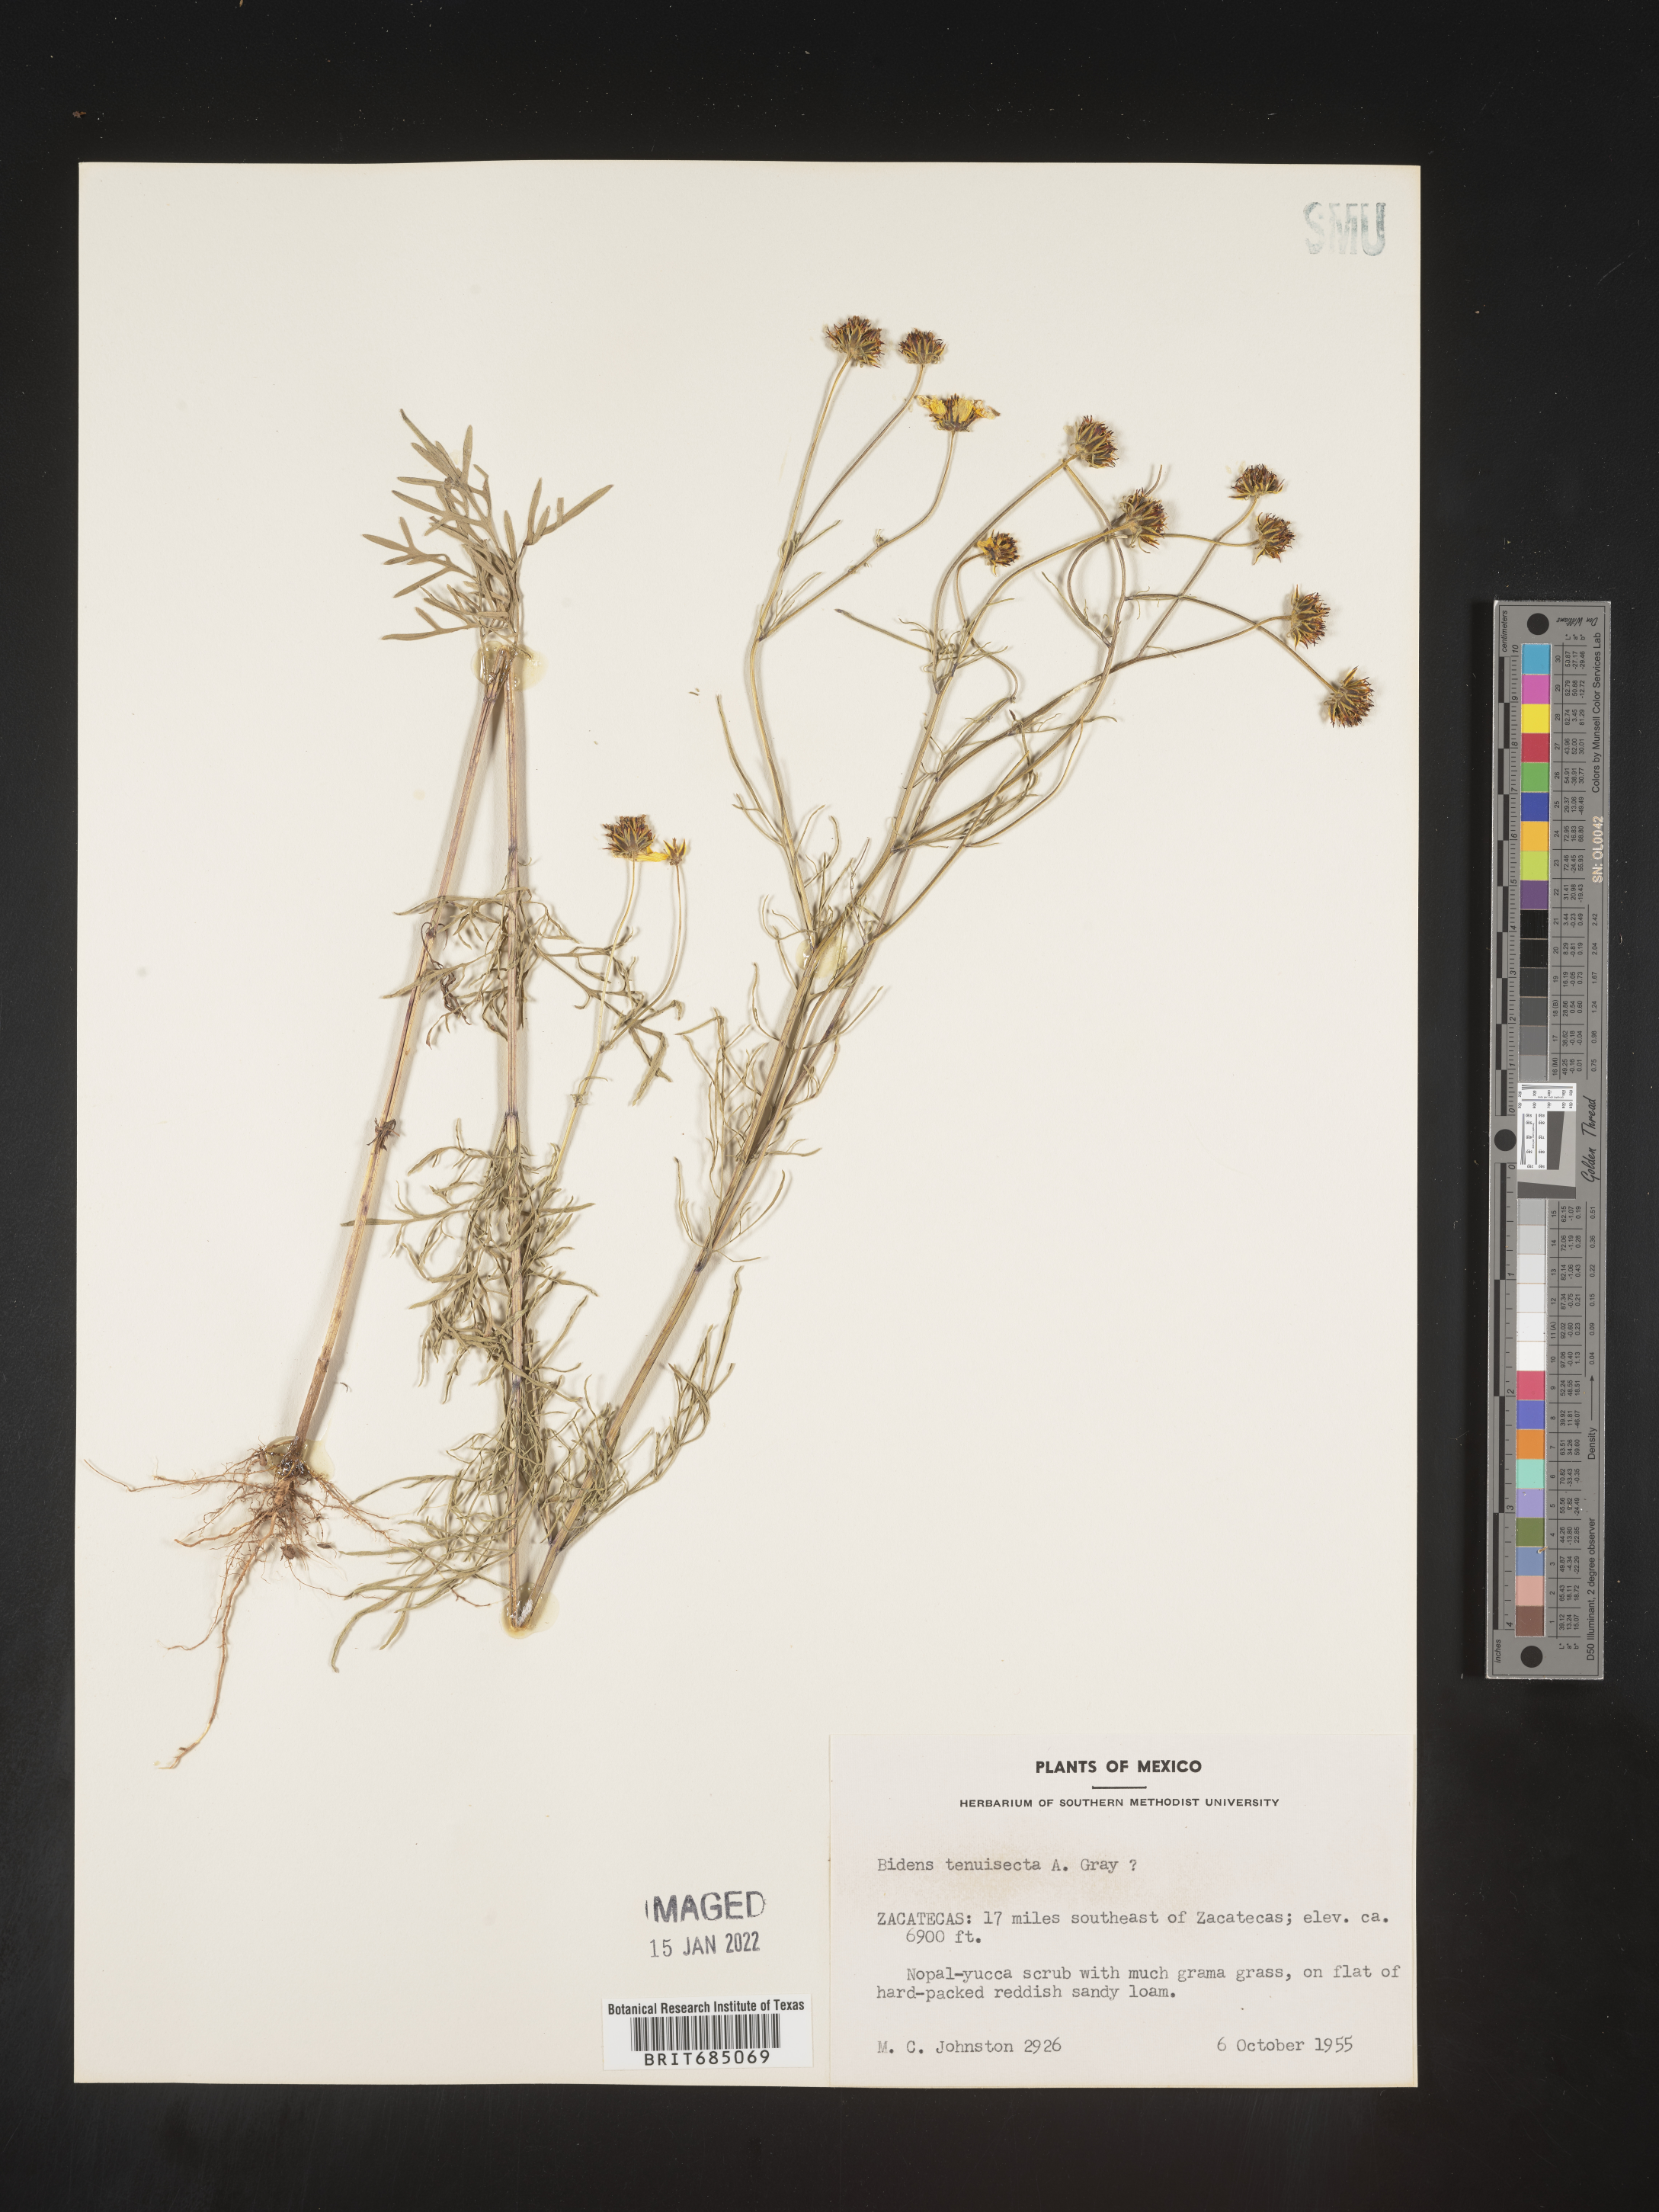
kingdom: Plantae
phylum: Tracheophyta
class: Magnoliopsida
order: Asterales
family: Asteraceae
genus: Bidens
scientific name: Bidens
